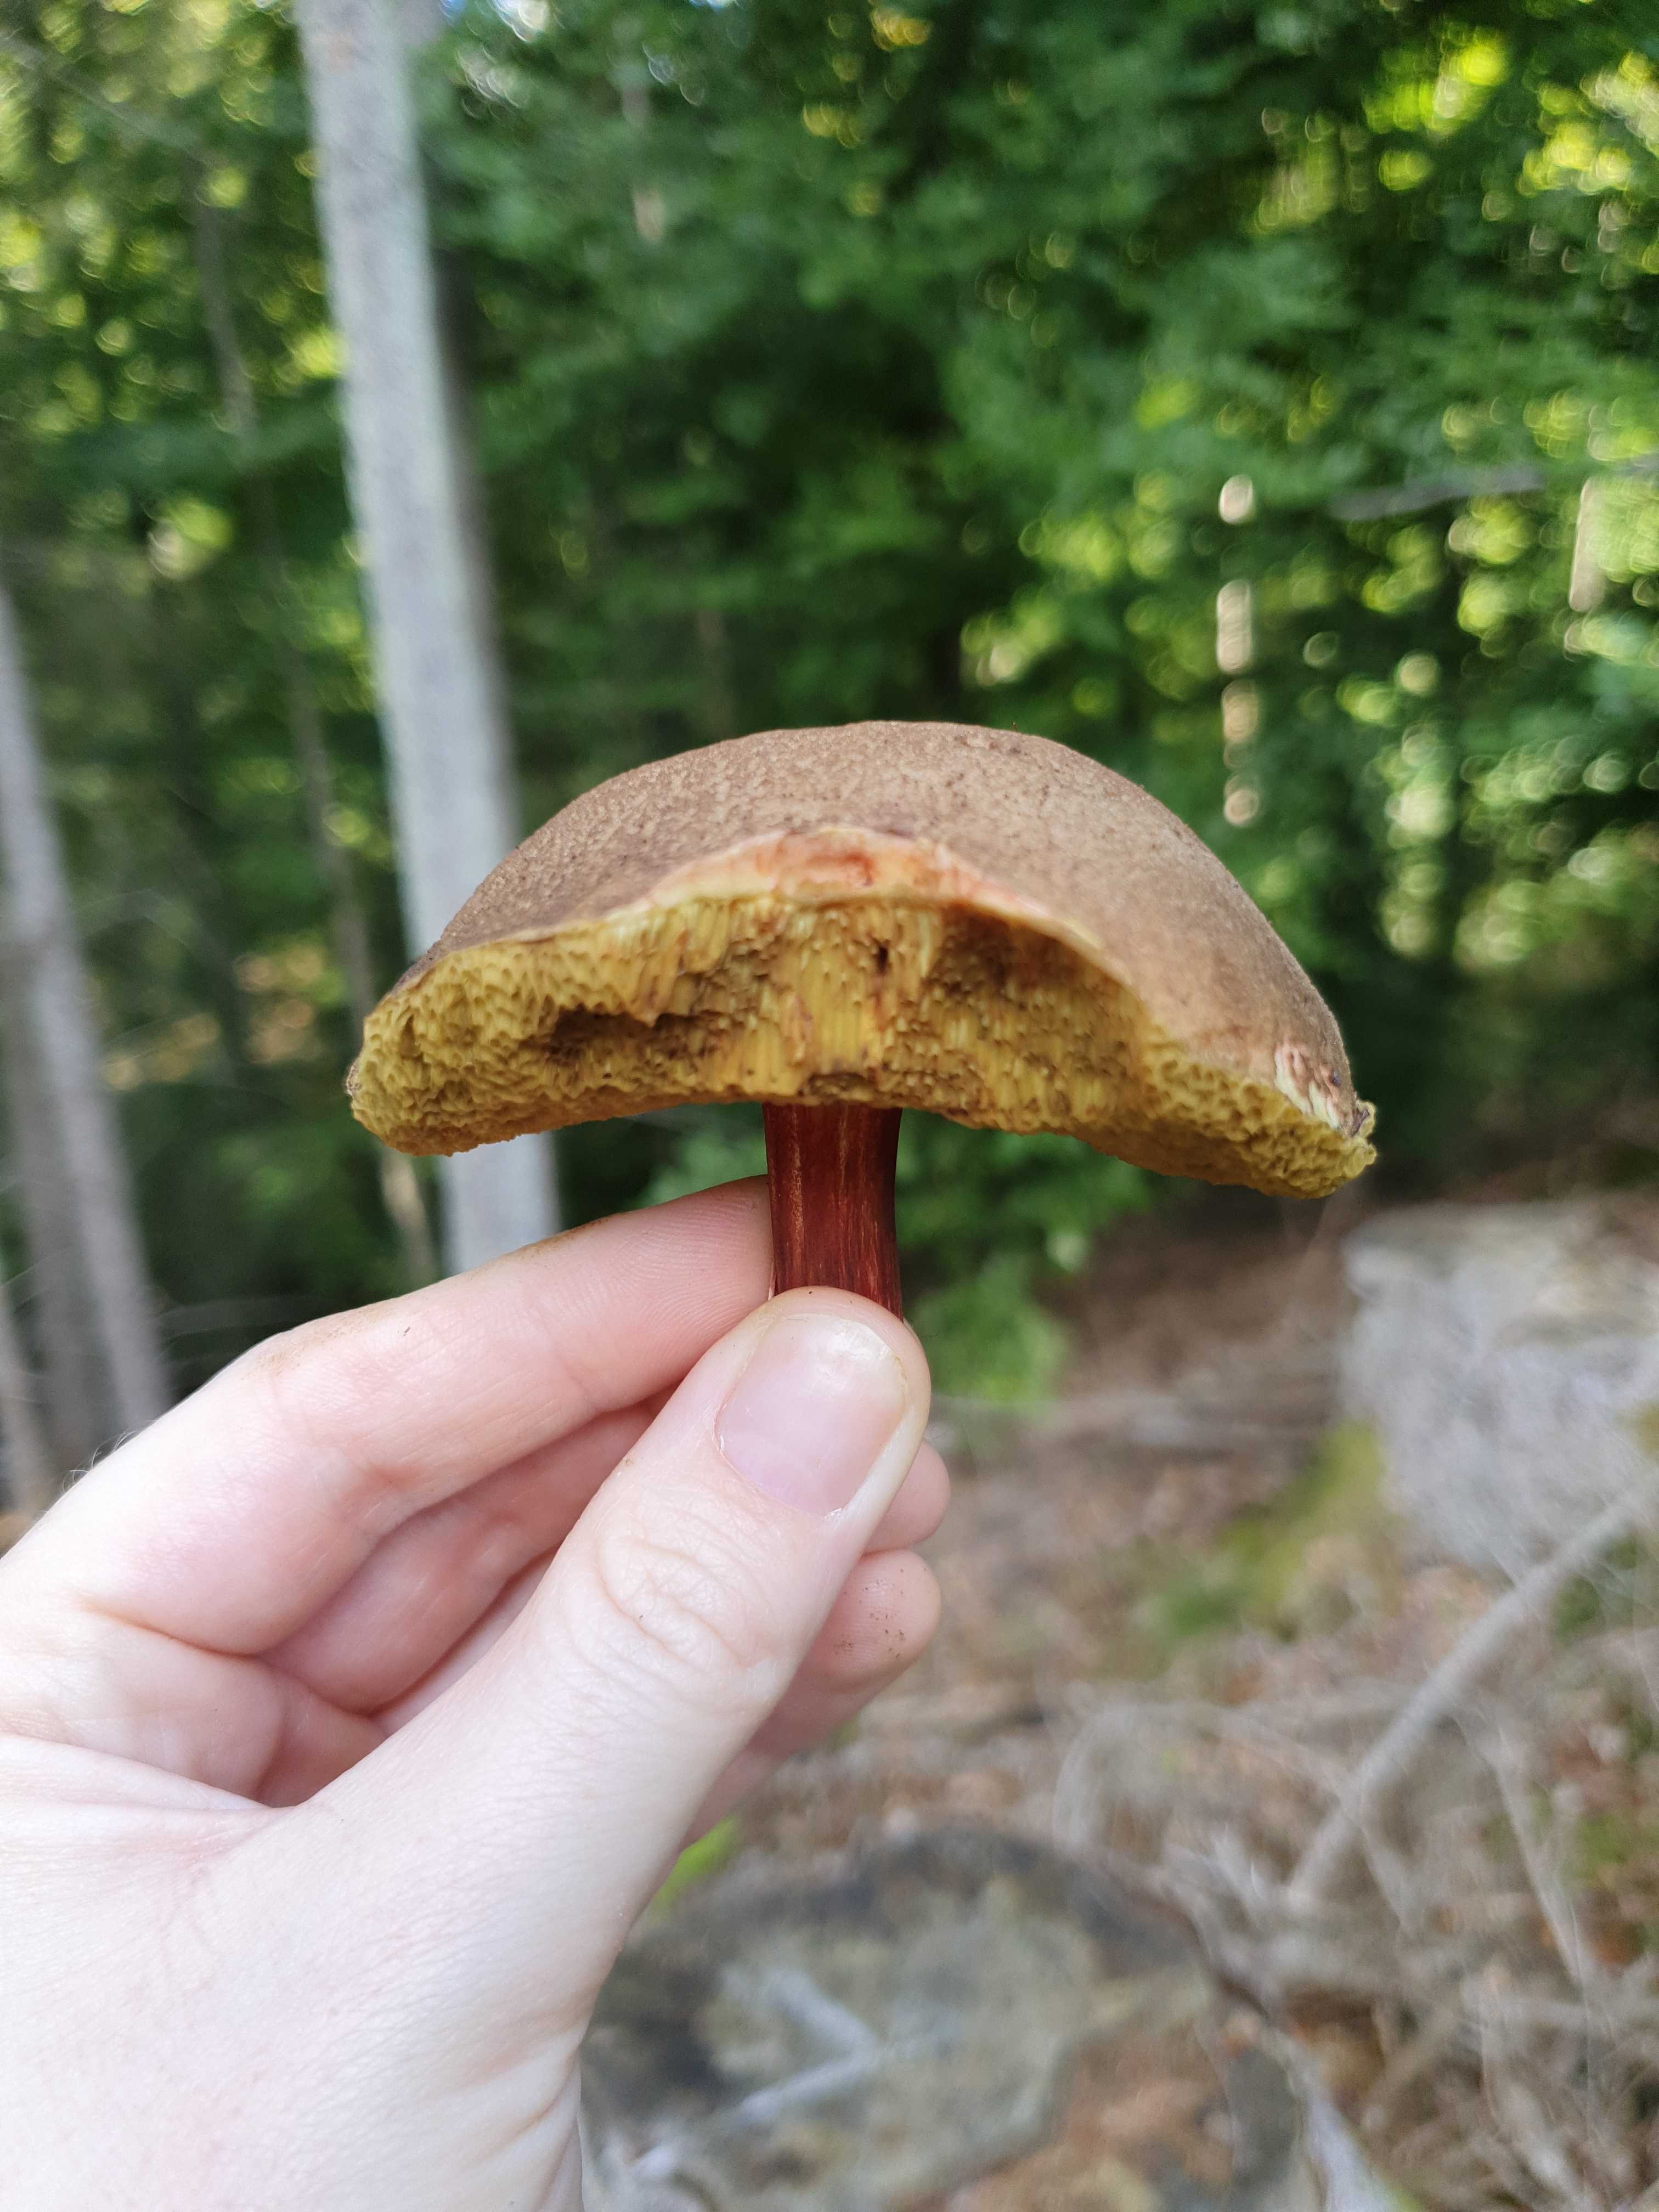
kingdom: Fungi
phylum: Basidiomycota
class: Agaricomycetes
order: Boletales
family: Boletaceae
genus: Xerocomellus
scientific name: Xerocomellus
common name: dværgrørhat
